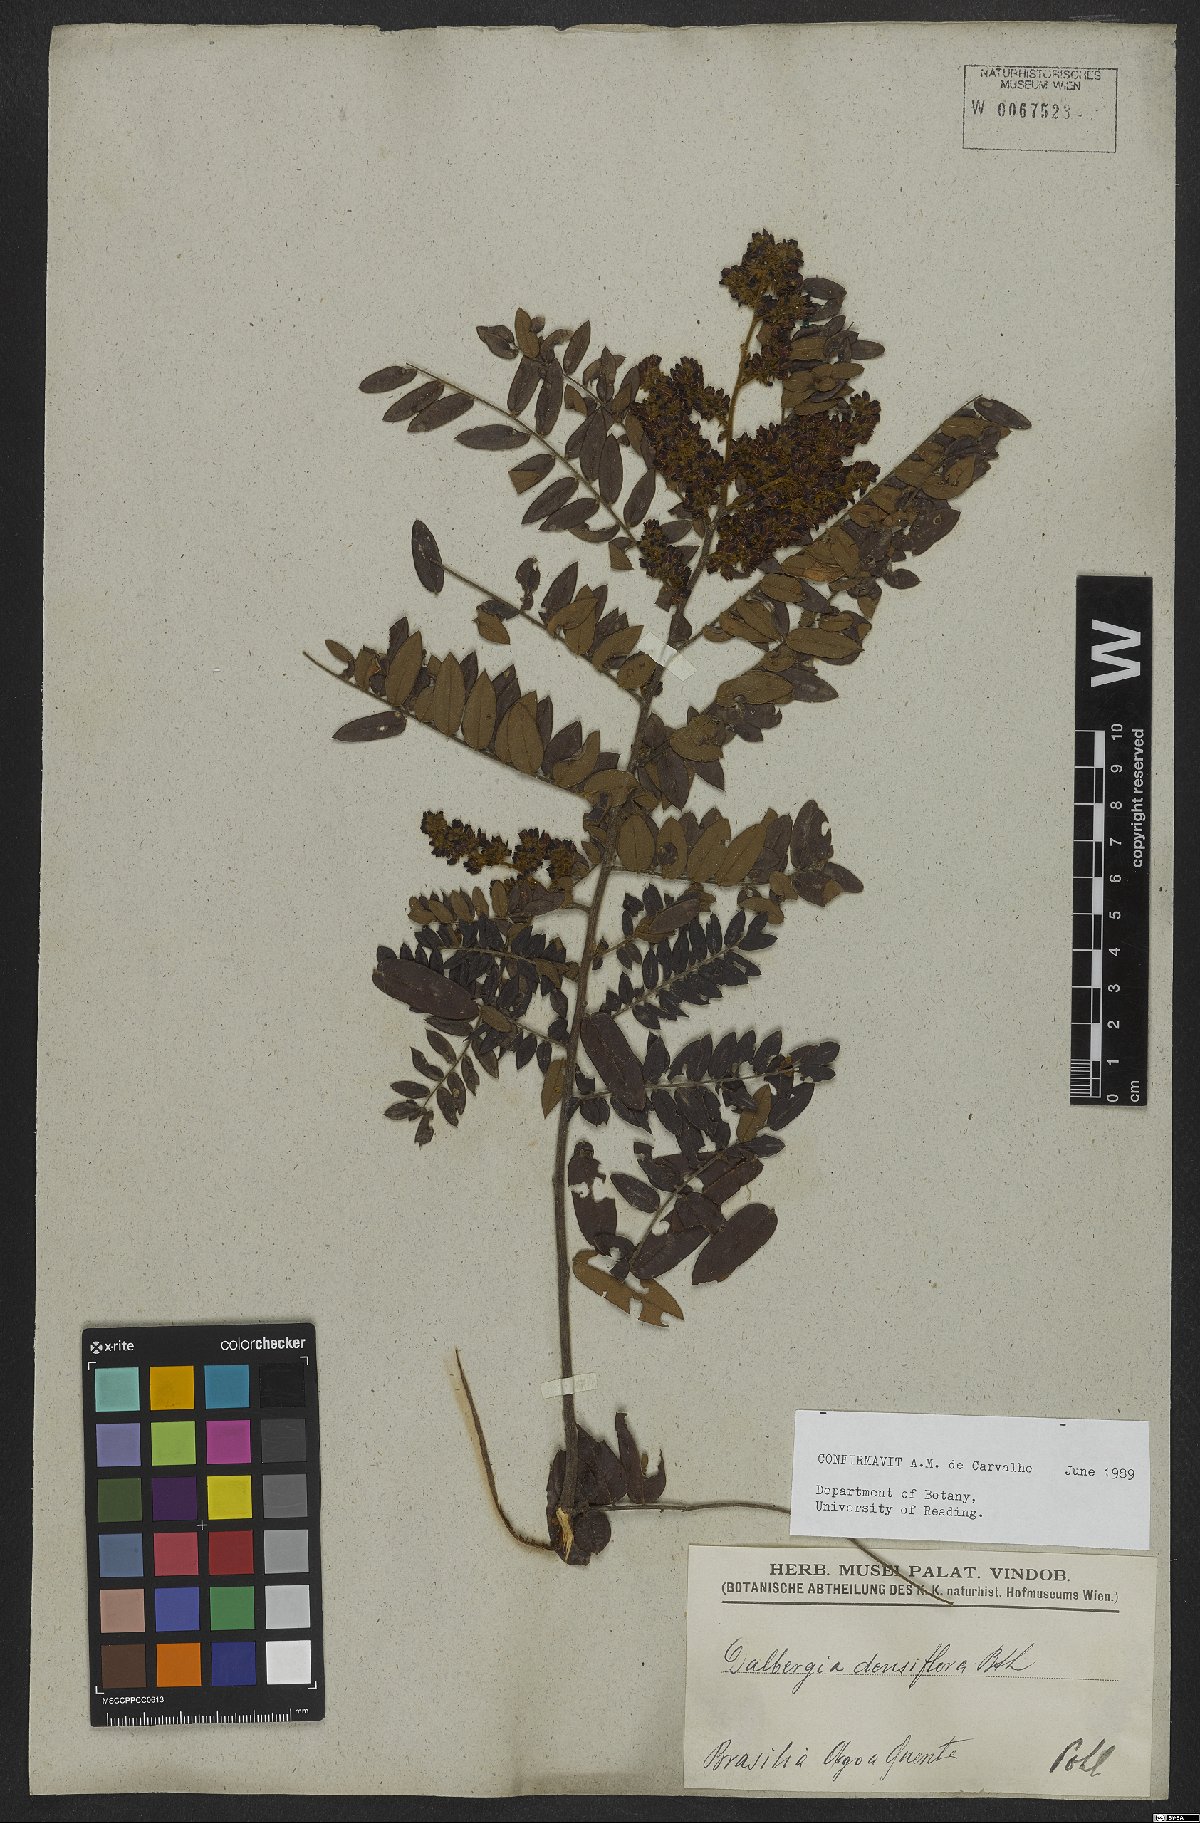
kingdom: Plantae
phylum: Tracheophyta
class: Magnoliopsida
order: Fabales
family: Fabaceae
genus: Dalbergia
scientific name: Dalbergia densiflora
